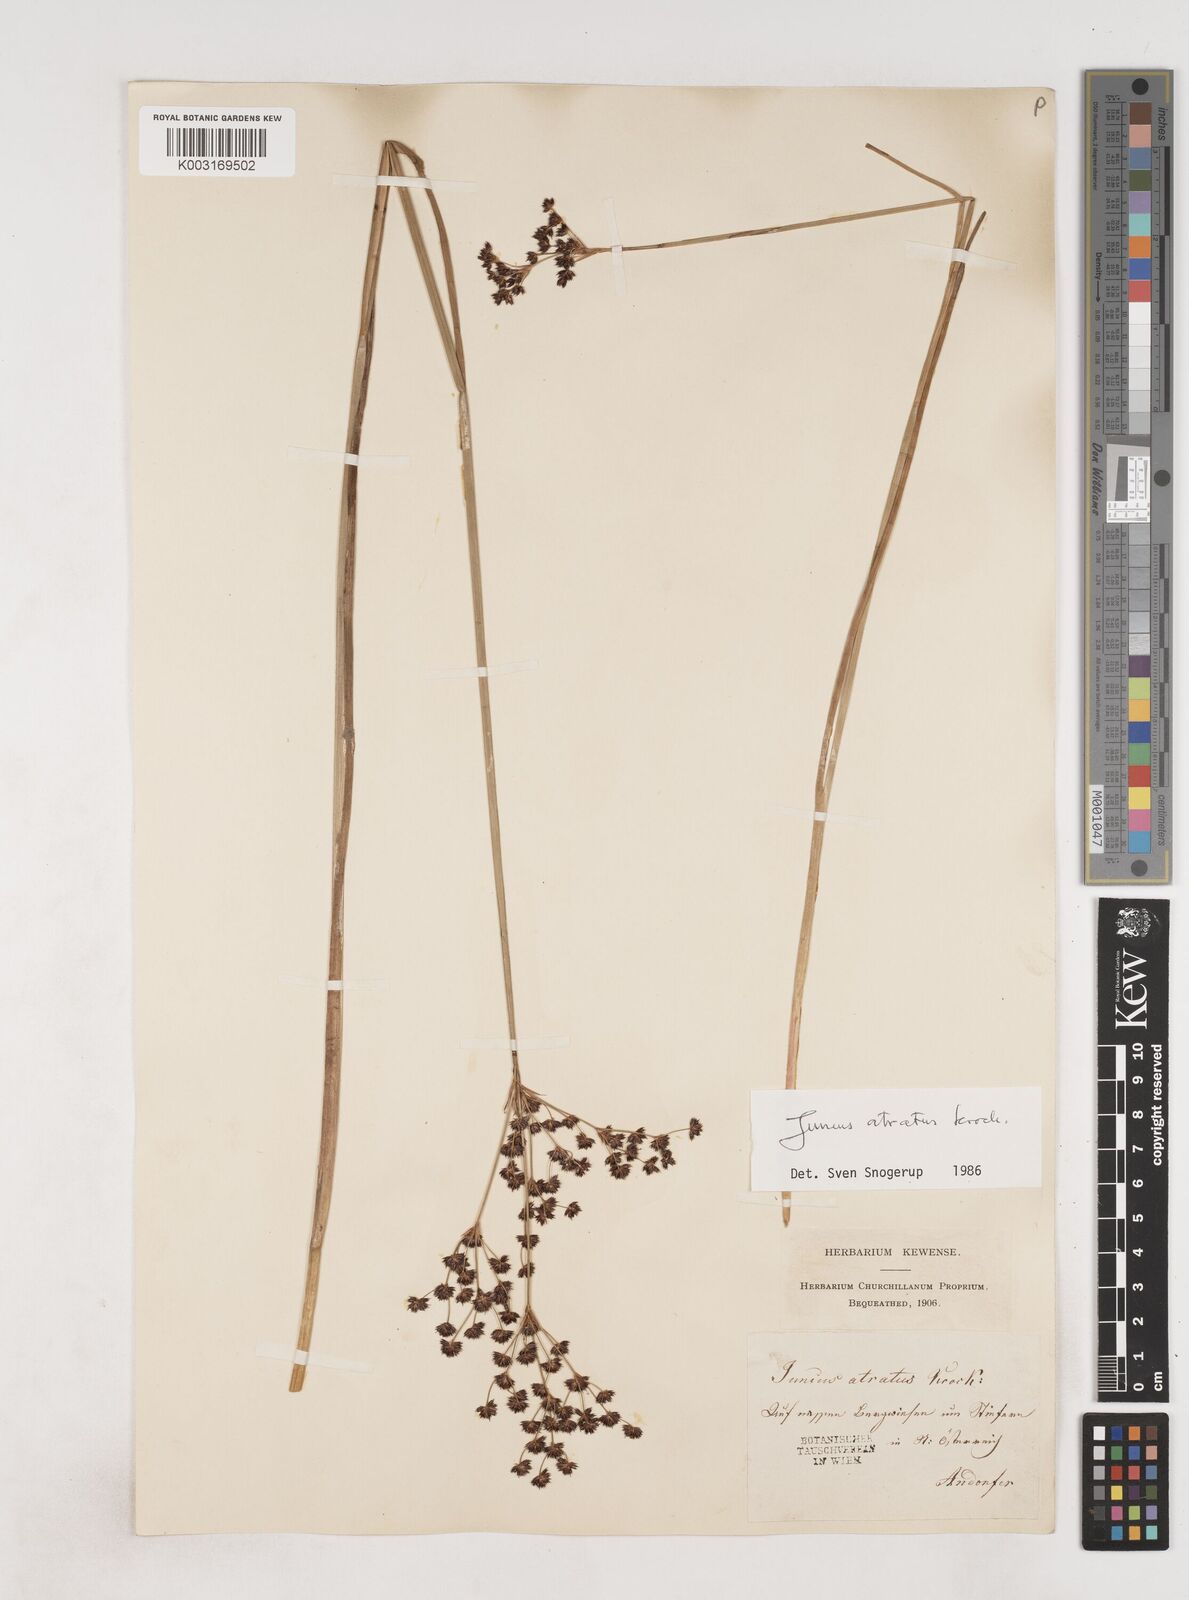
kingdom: Plantae
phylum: Tracheophyta
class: Liliopsida
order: Poales
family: Juncaceae
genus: Juncus
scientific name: Juncus atratus
